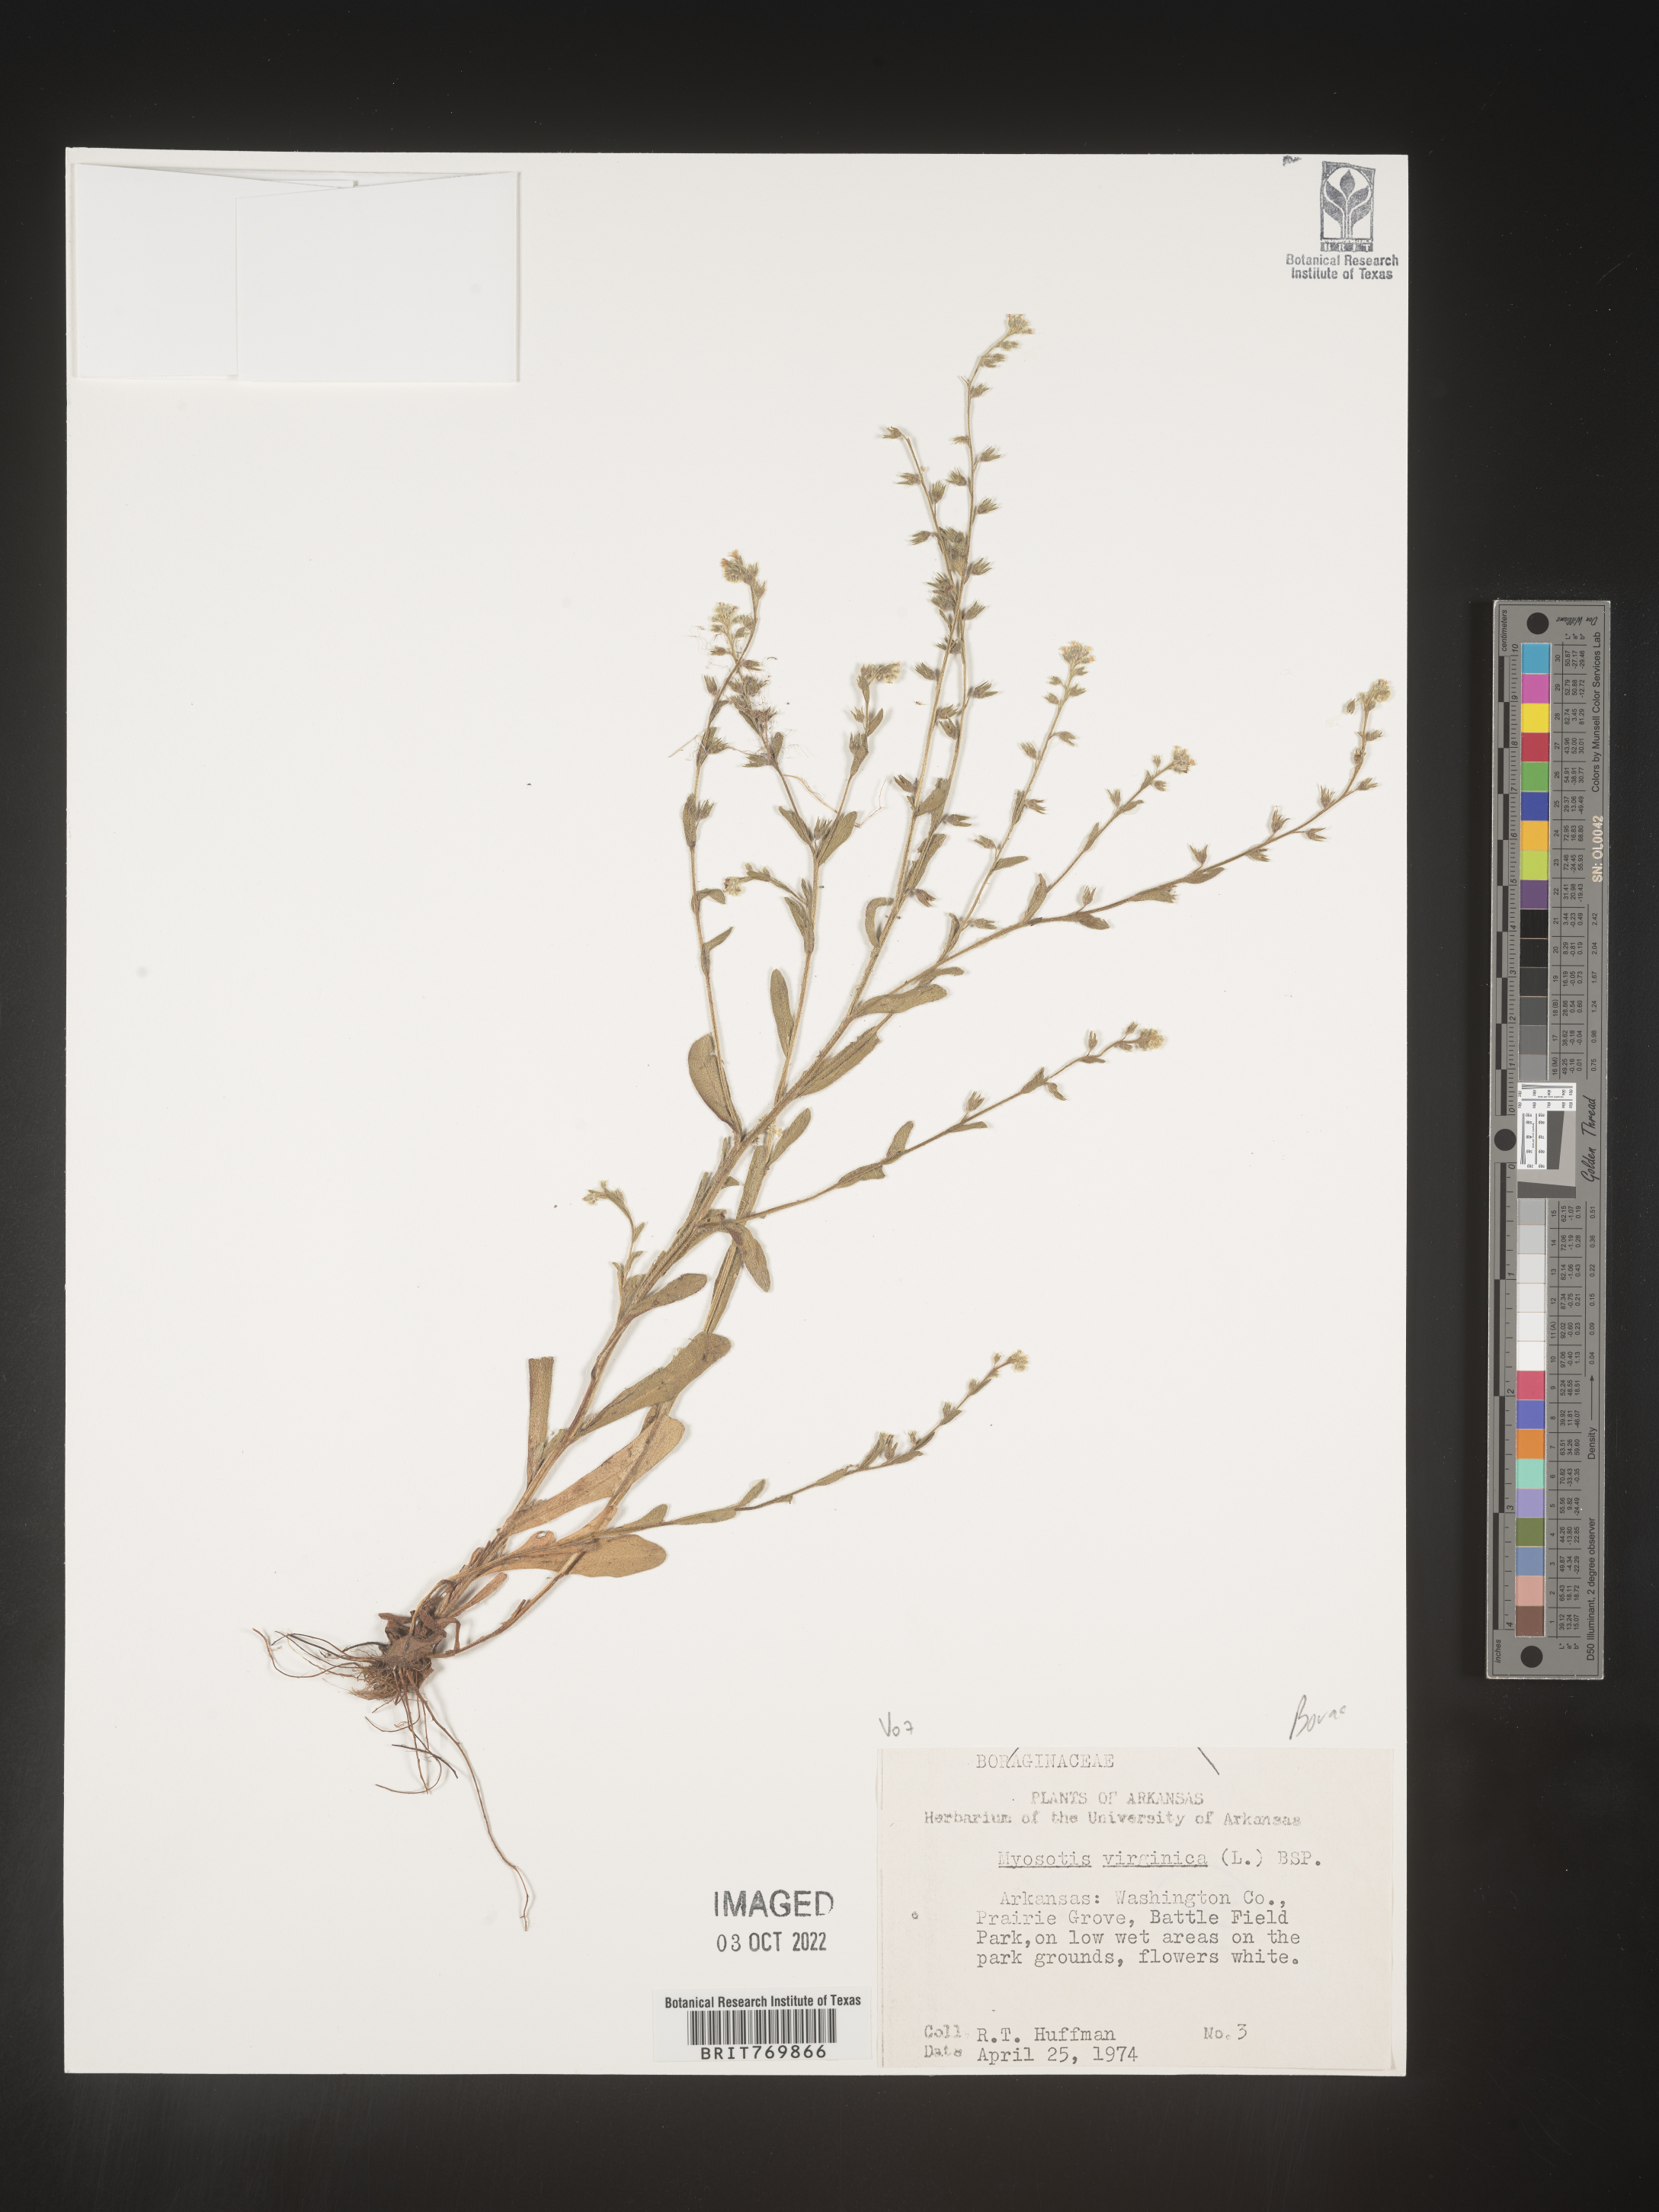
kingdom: Plantae
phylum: Tracheophyta
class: Magnoliopsida
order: Boraginales
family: Boraginaceae
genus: Myosotis
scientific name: Myosotis
